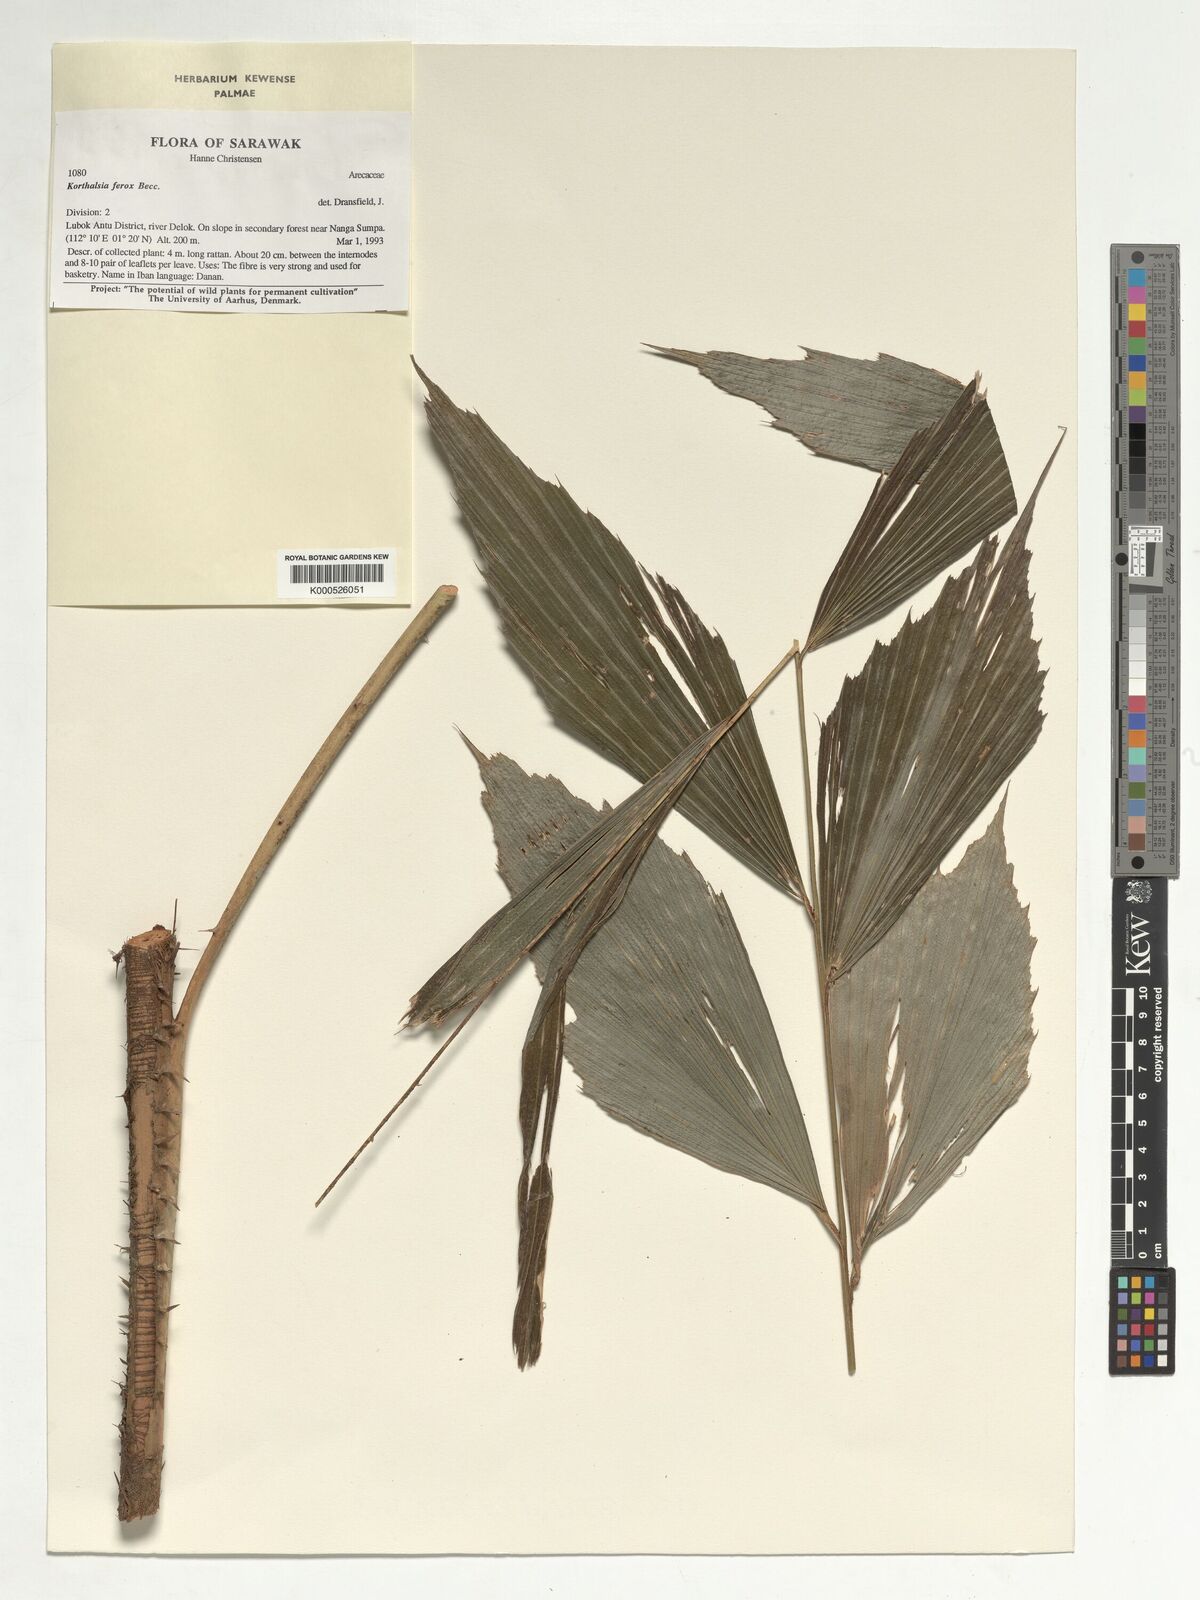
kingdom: Plantae
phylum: Tracheophyta
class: Liliopsida
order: Arecales
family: Arecaceae
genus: Korthalsia
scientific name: Korthalsia ferox
